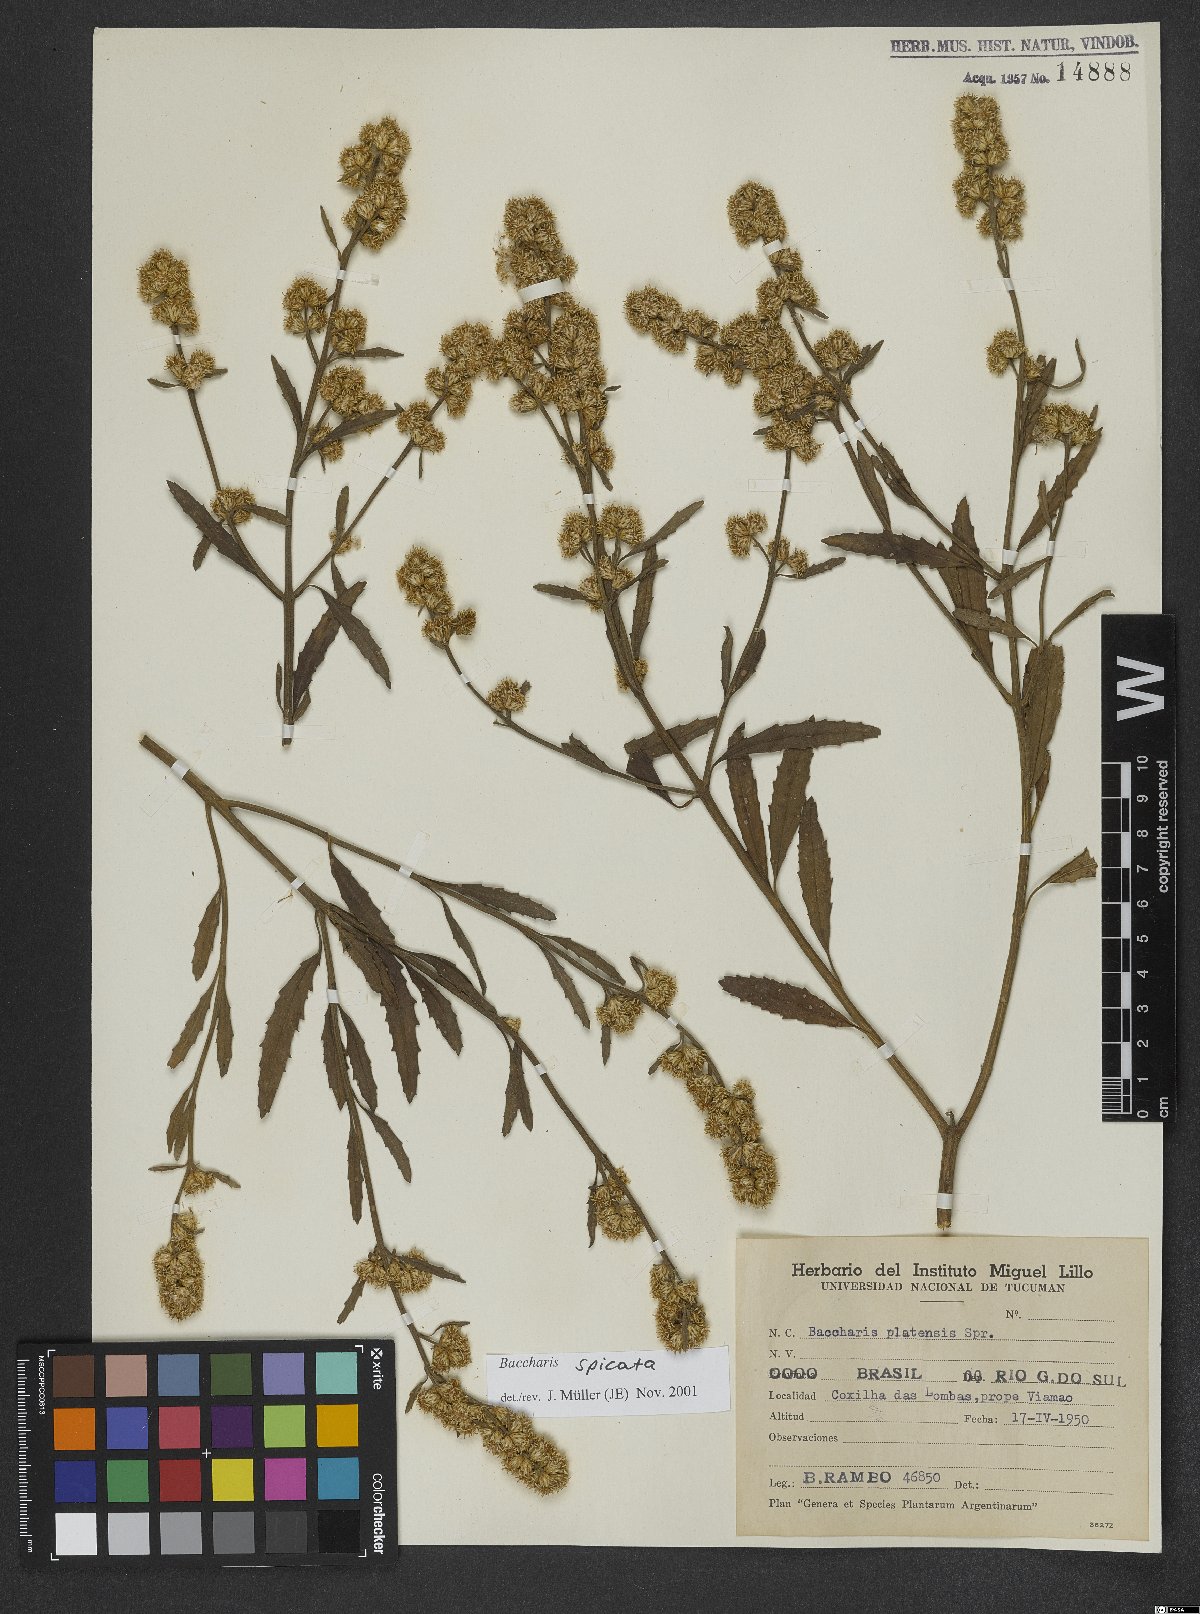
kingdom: Plantae
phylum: Tracheophyta
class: Magnoliopsida
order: Asterales
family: Asteraceae
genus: Baccharis
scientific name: Baccharis spicata
